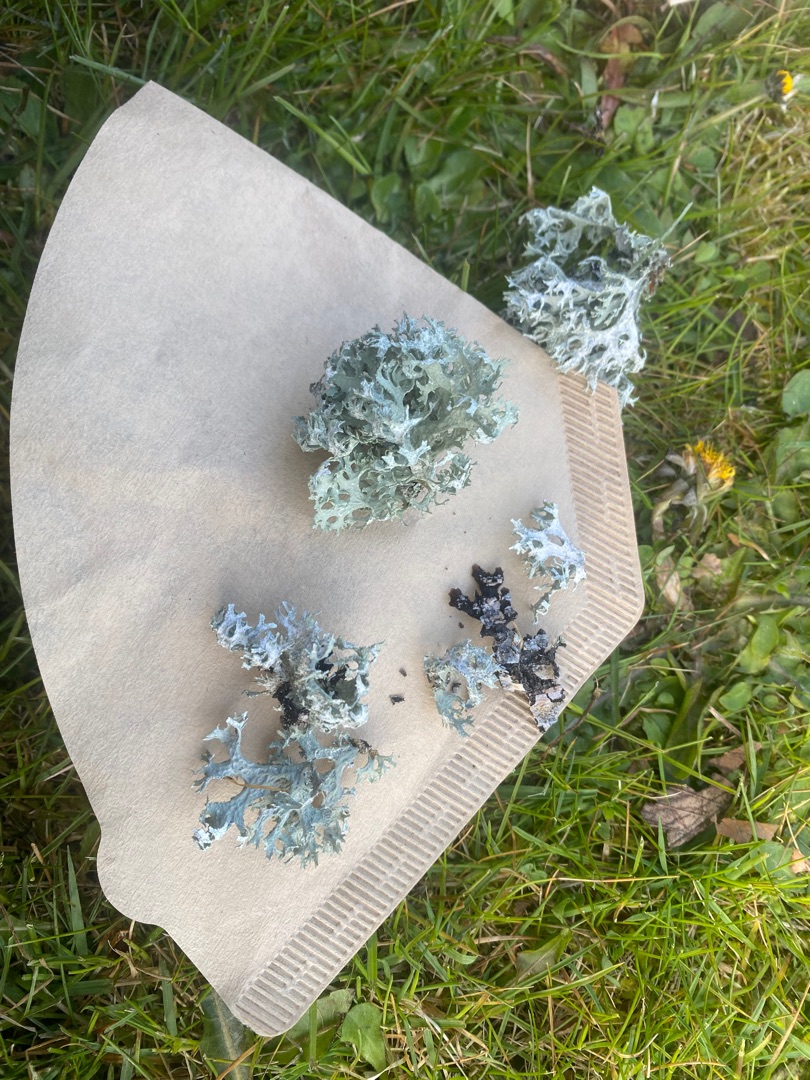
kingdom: Fungi
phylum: Ascomycota
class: Lecanoromycetes
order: Lecanorales
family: Parmeliaceae
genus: Evernia
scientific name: Evernia prunastri
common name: Almindelig slåenlav
